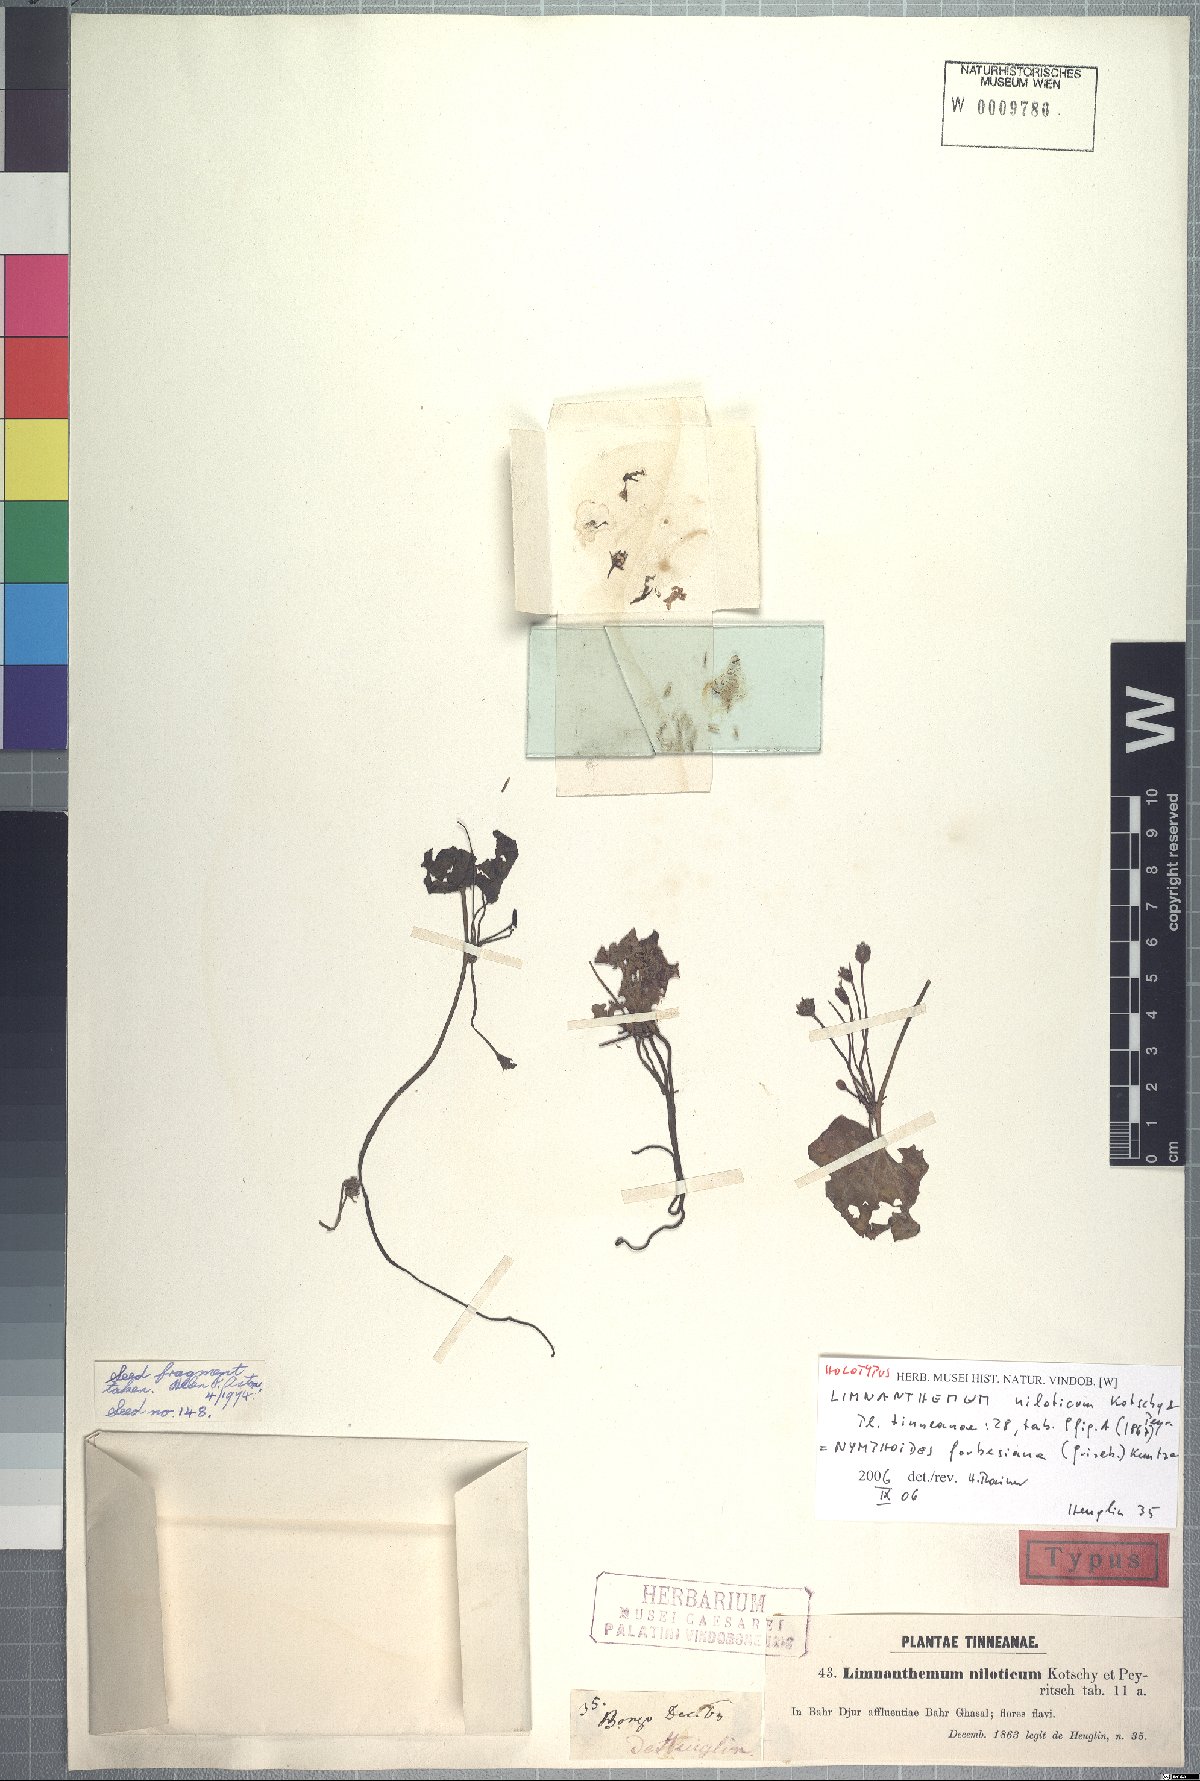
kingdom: Plantae
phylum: Tracheophyta
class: Magnoliopsida
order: Asterales
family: Menyanthaceae
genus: Nymphoides
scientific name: Nymphoides forbesiana
